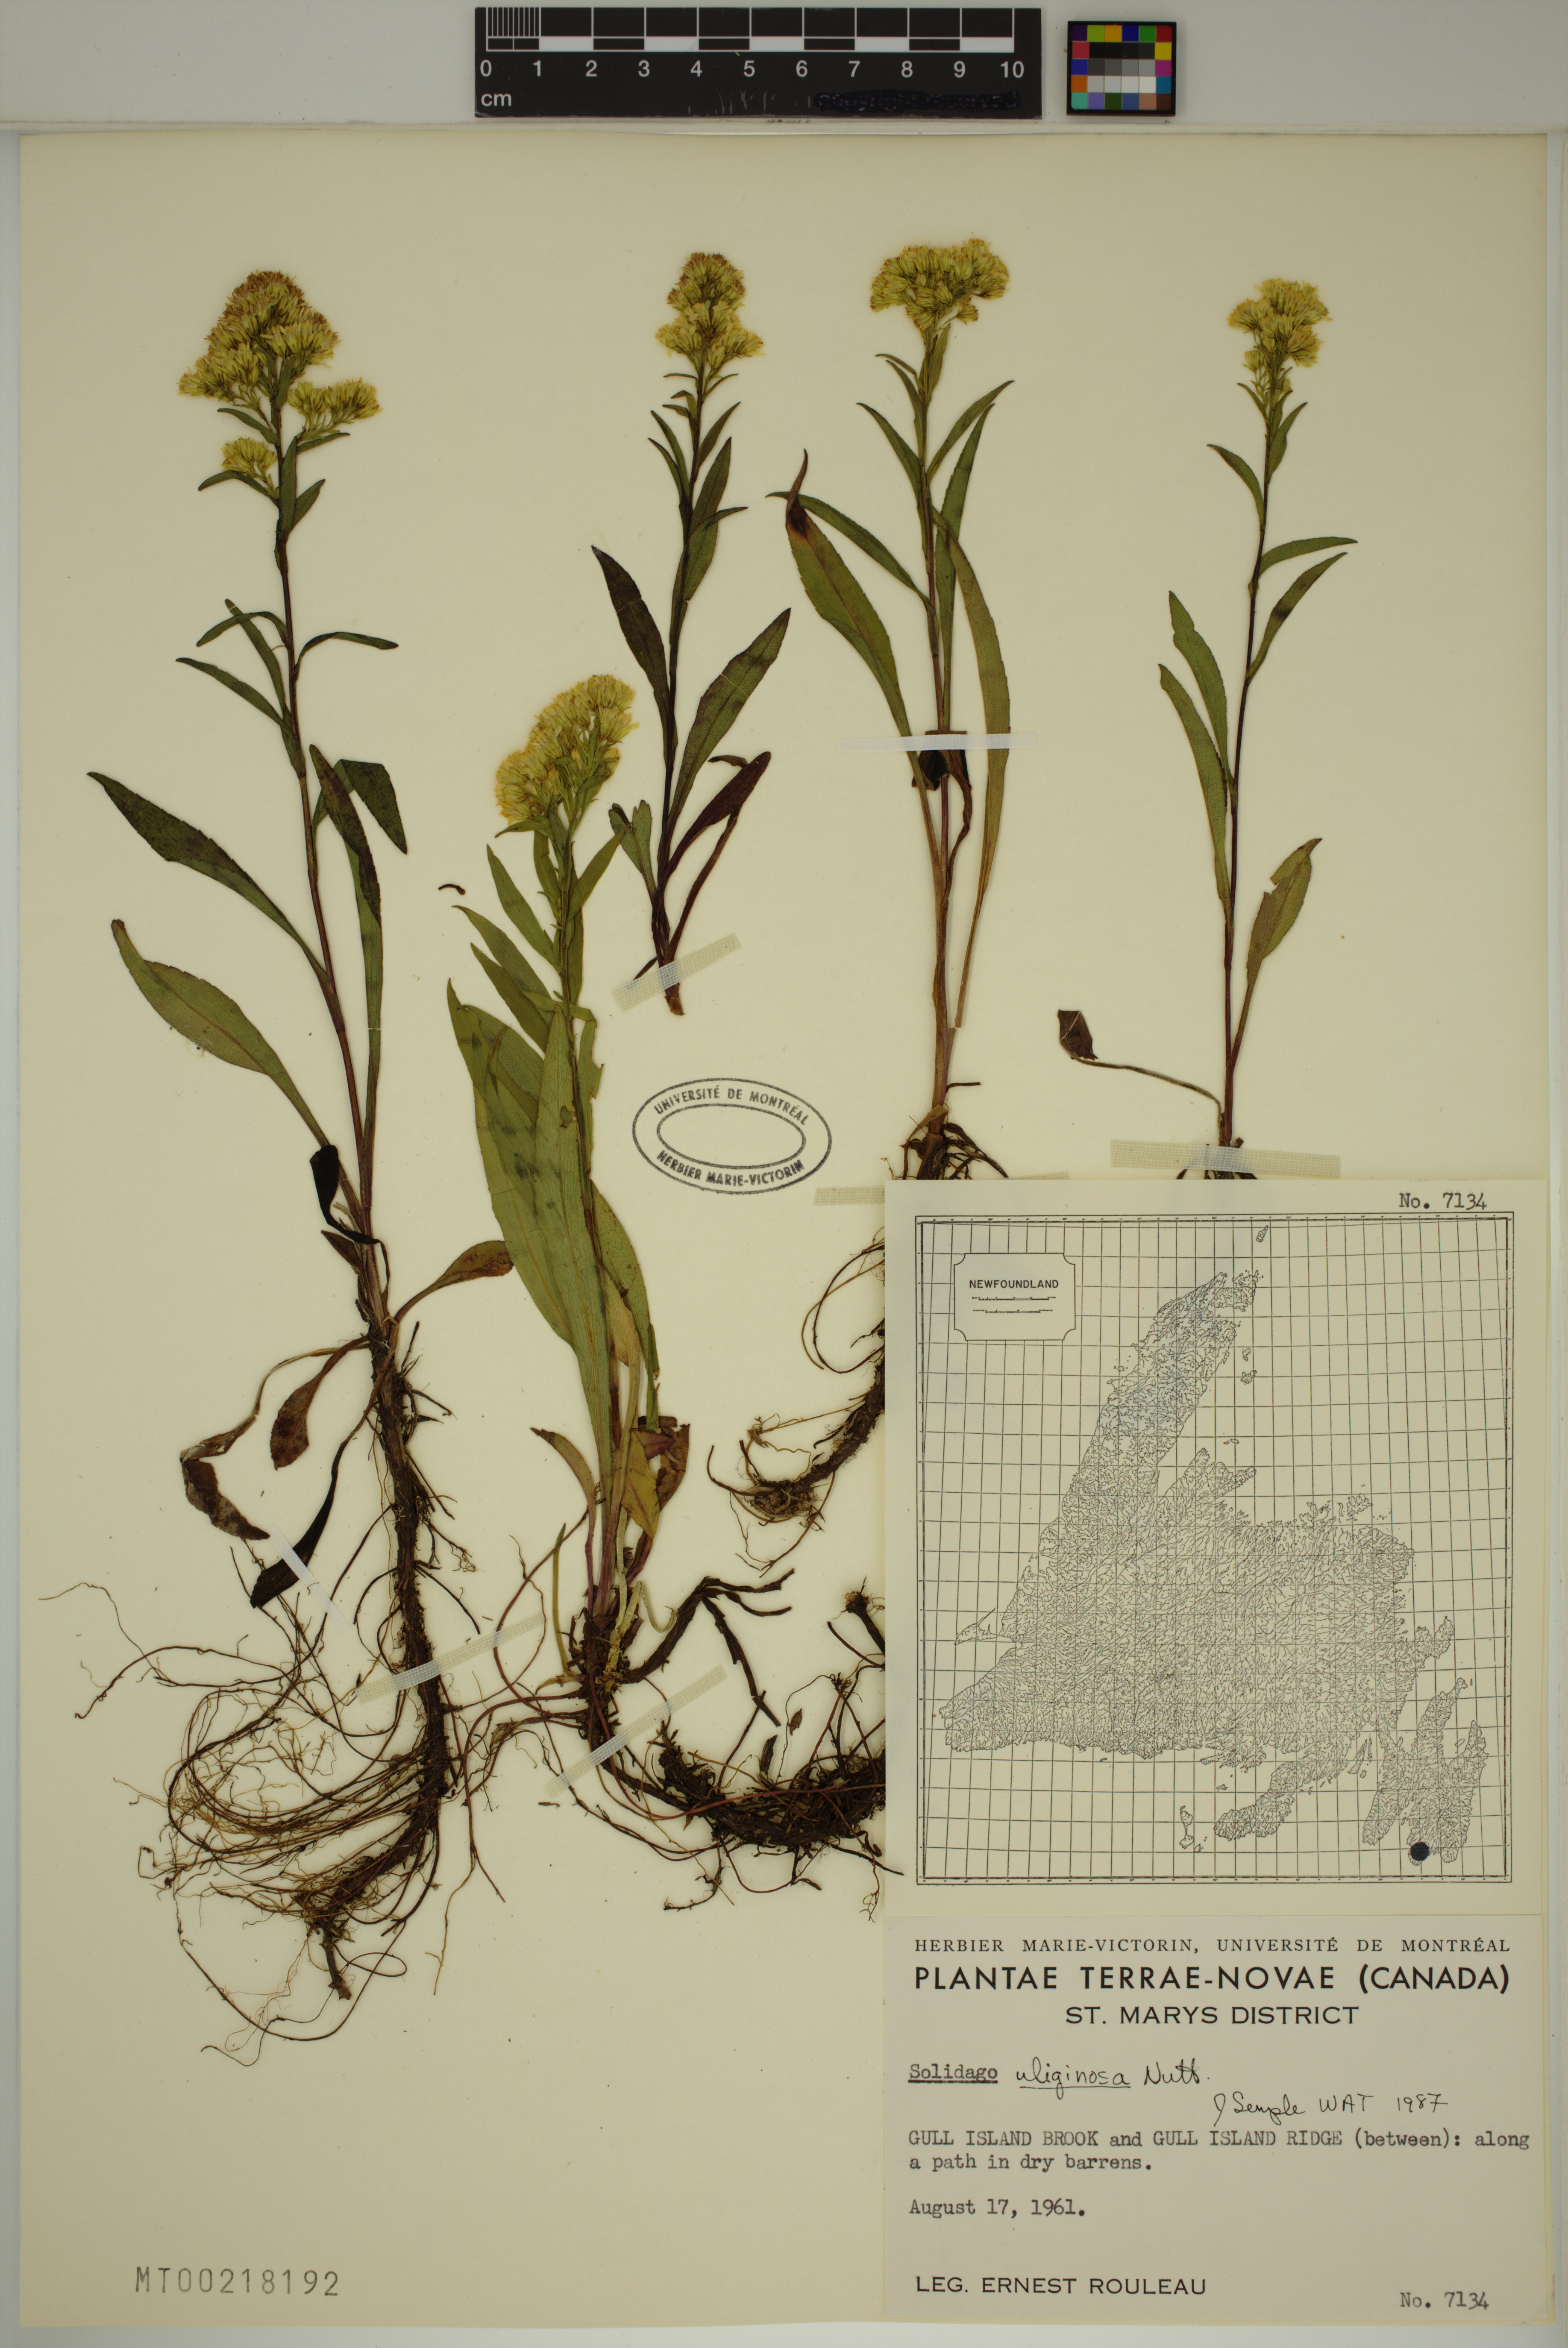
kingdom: Plantae
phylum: Tracheophyta
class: Magnoliopsida
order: Asterales
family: Asteraceae
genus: Solidago
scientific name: Solidago uliginosa
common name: Bog goldenrod
